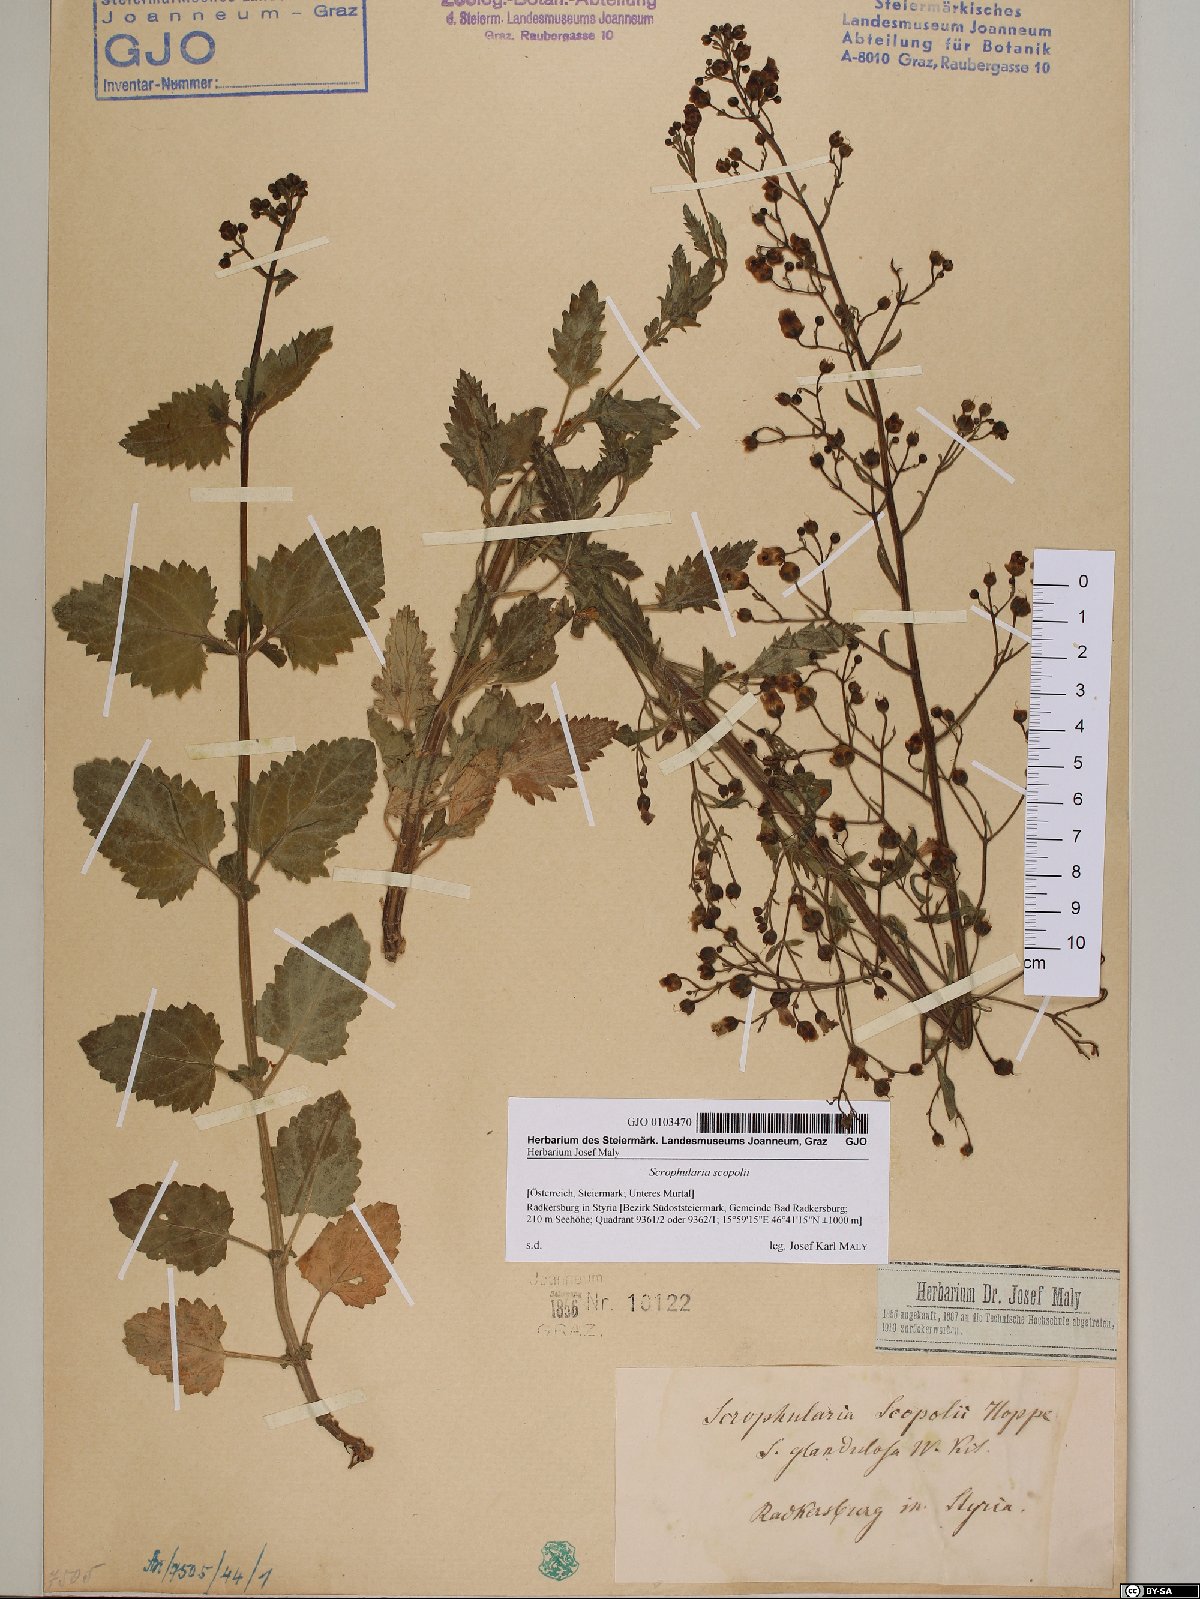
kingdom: Plantae
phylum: Tracheophyta
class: Magnoliopsida
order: Lamiales
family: Scrophulariaceae
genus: Scrophularia
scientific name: Scrophularia scopolii
